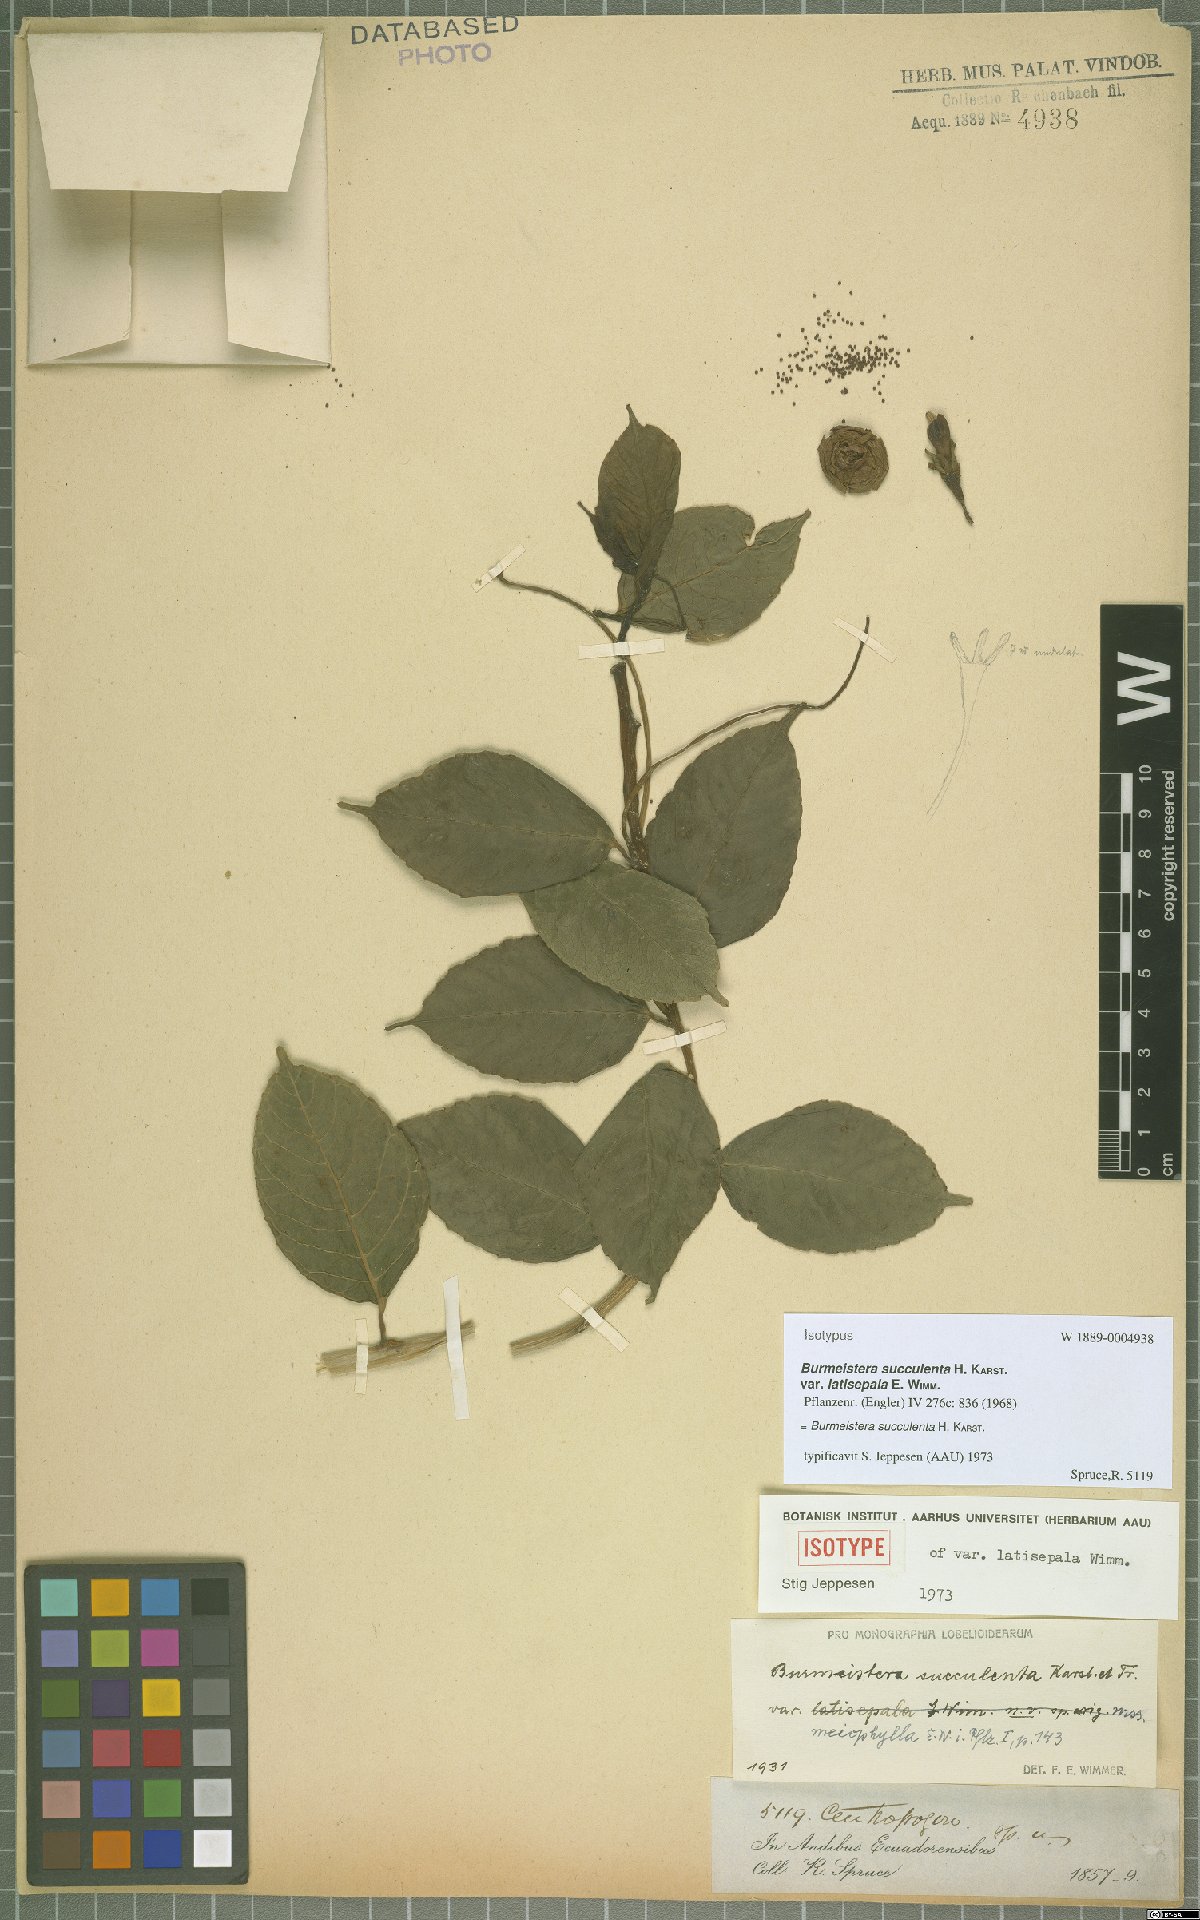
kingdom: Plantae
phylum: Tracheophyta
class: Magnoliopsida
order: Asterales
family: Campanulaceae
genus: Burmeistera
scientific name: Burmeistera succulenta
